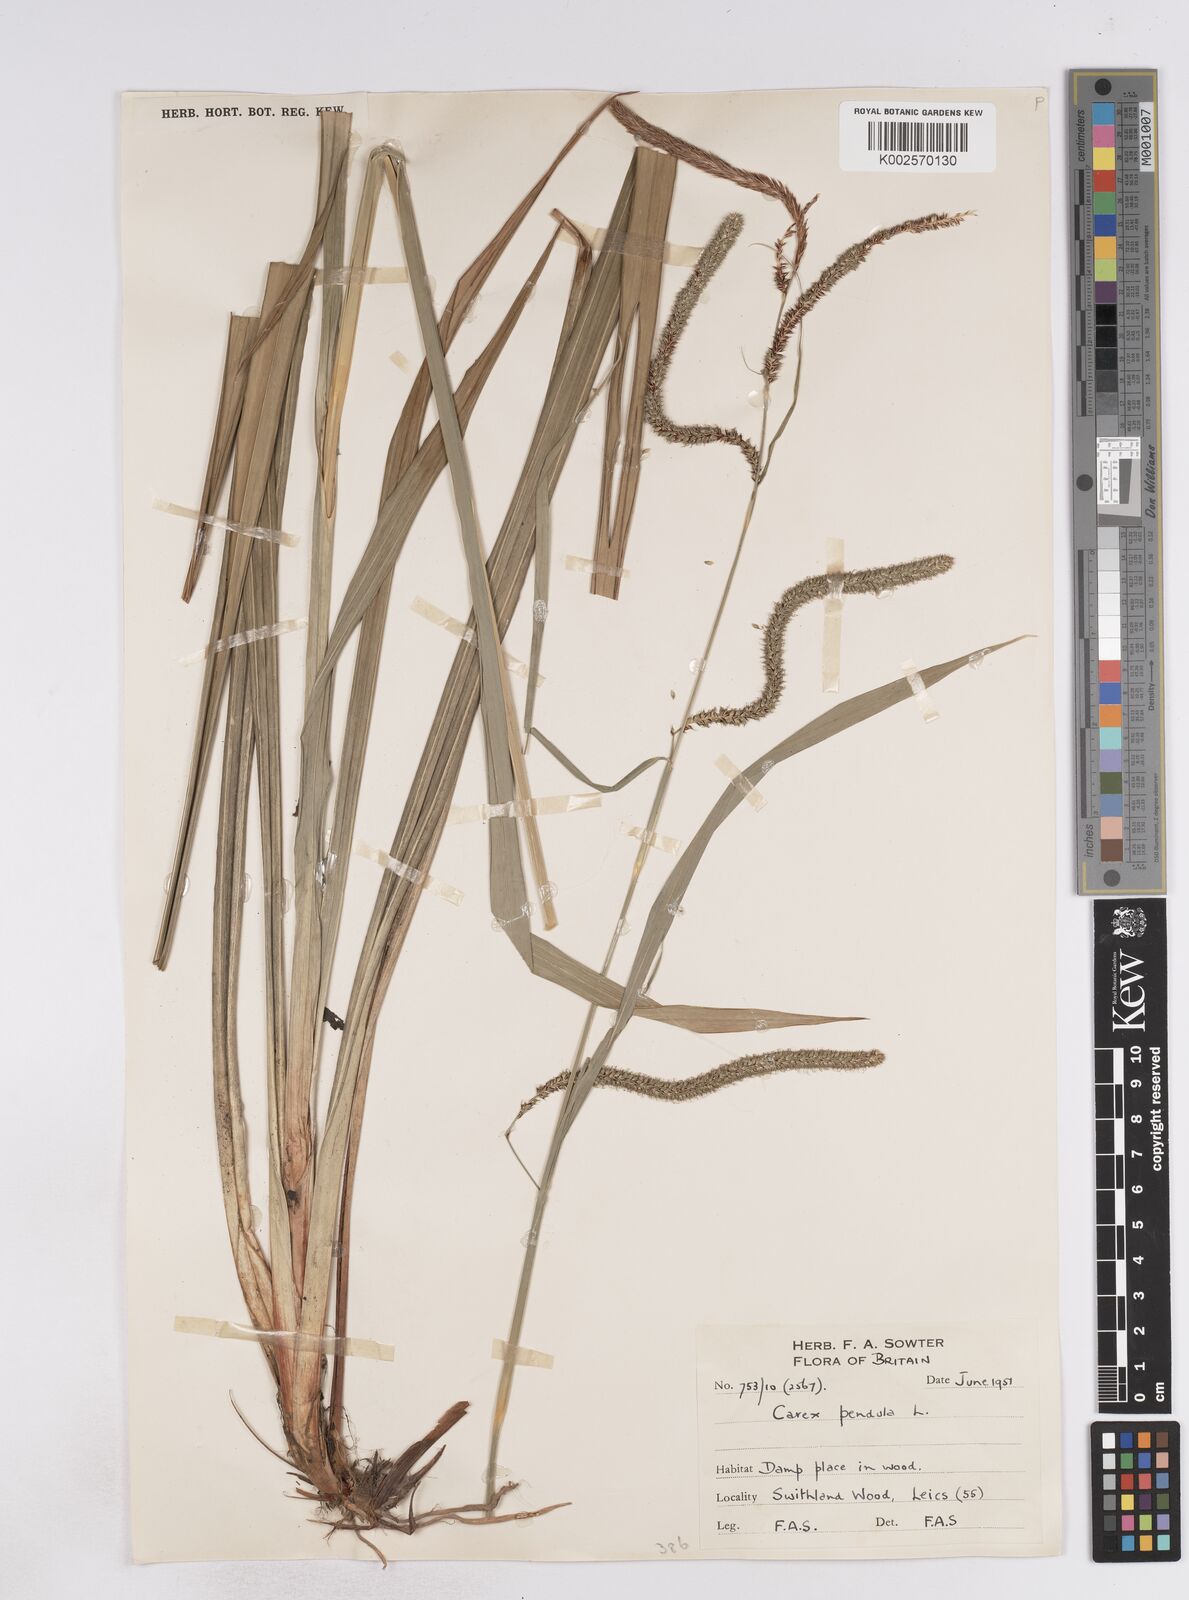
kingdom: Plantae
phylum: Tracheophyta
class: Liliopsida
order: Poales
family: Cyperaceae
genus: Carex
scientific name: Carex pendula
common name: Pendulous sedge
